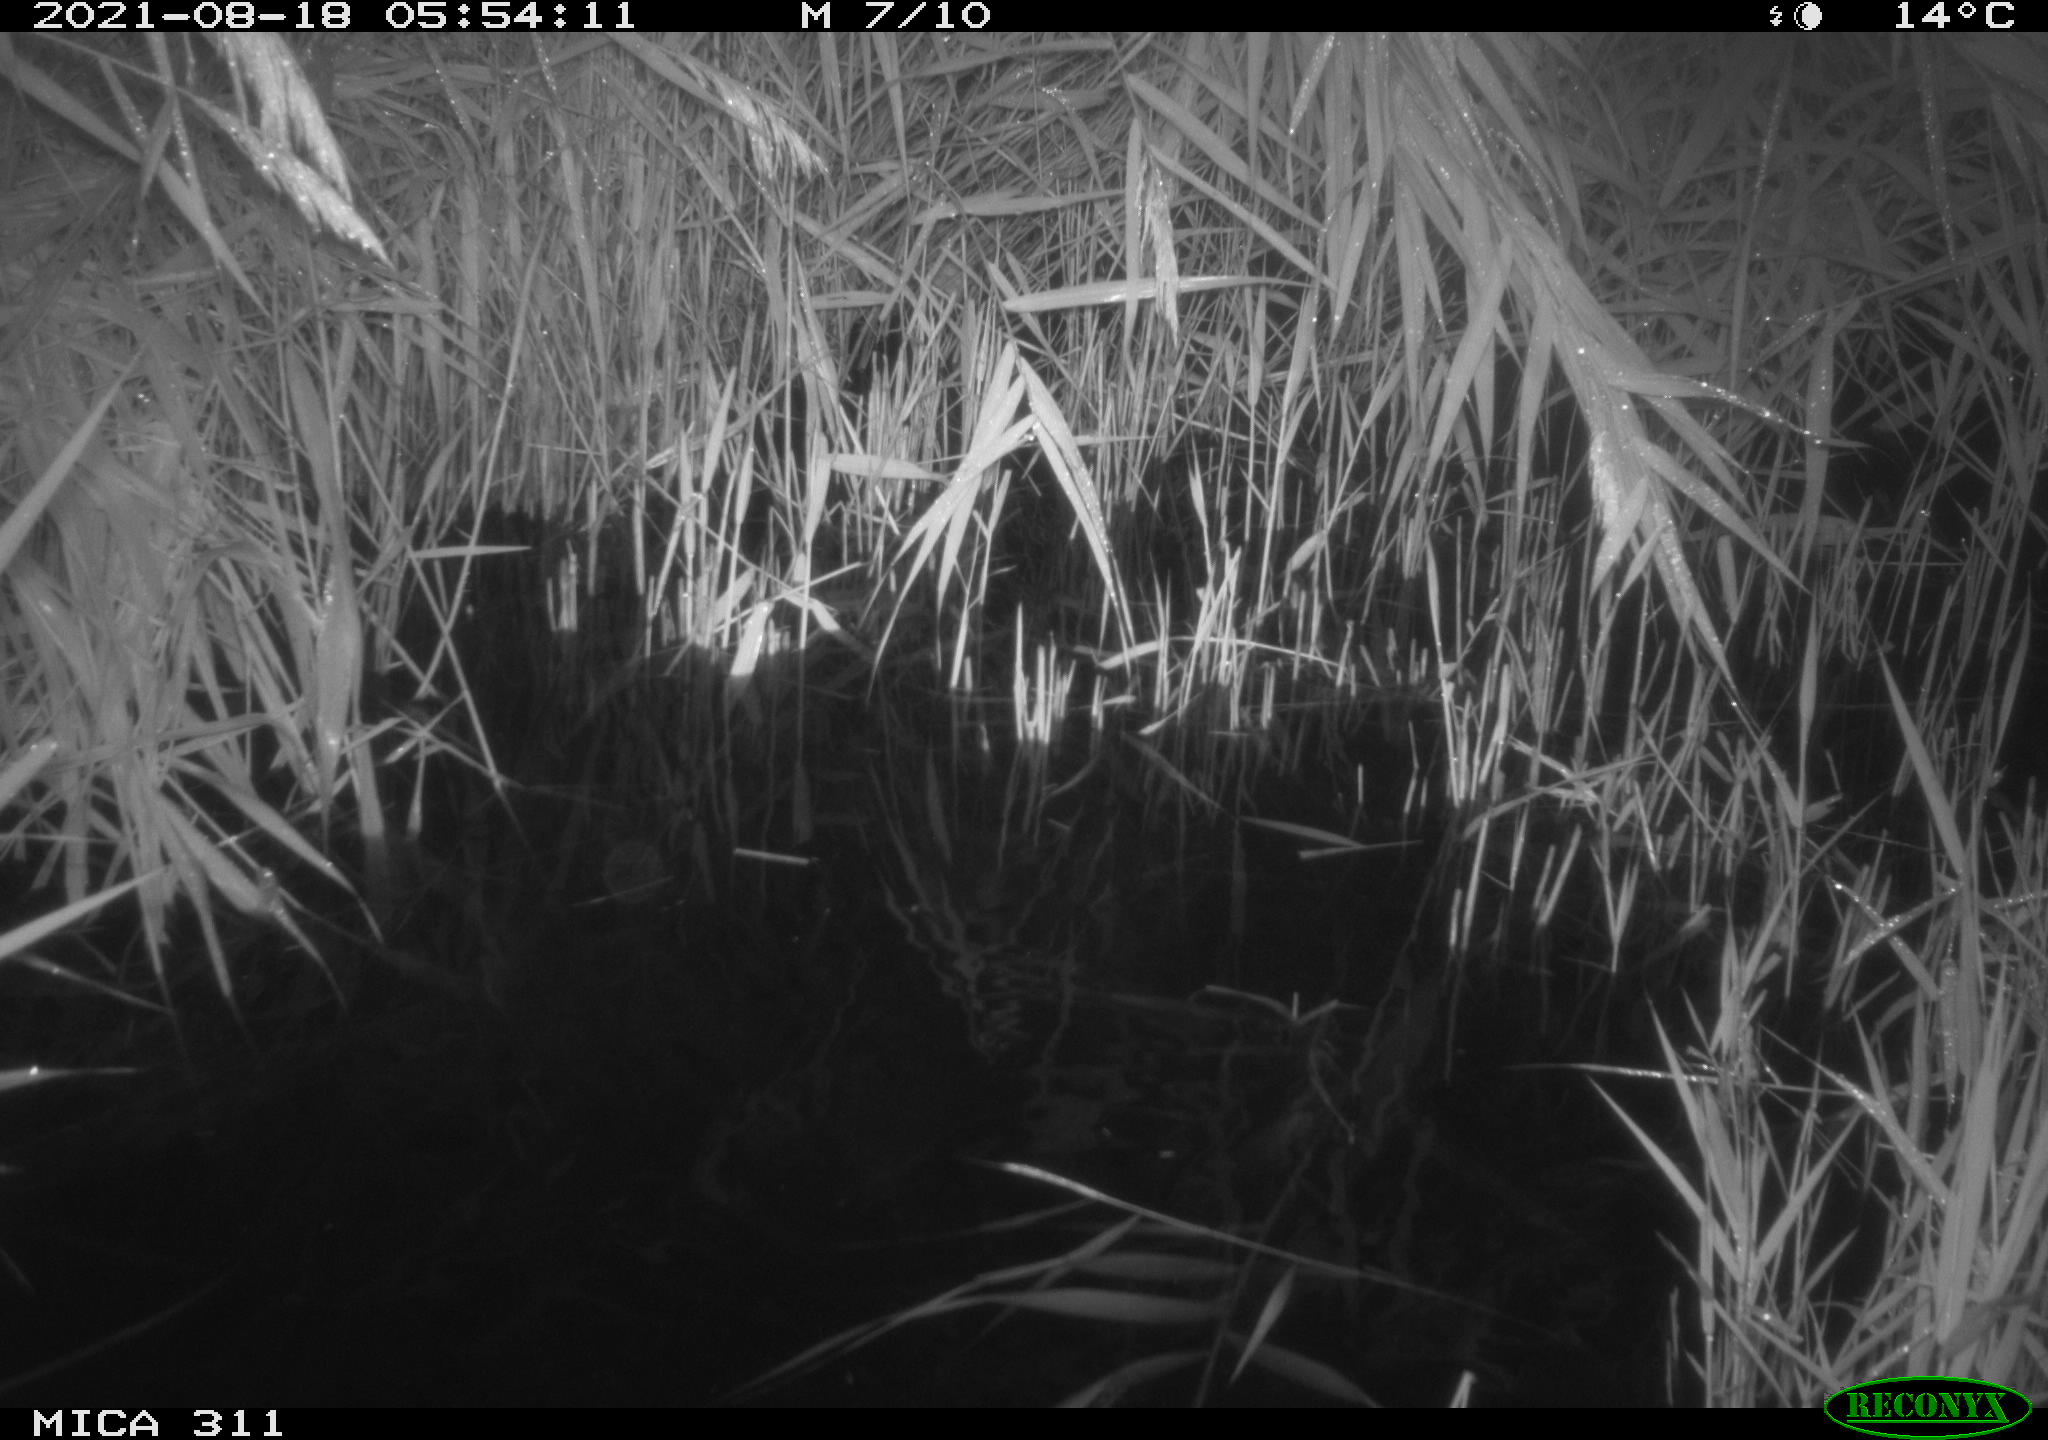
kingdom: Animalia
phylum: Chordata
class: Mammalia
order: Rodentia
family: Muridae
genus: Rattus
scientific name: Rattus norvegicus
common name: Brown rat
